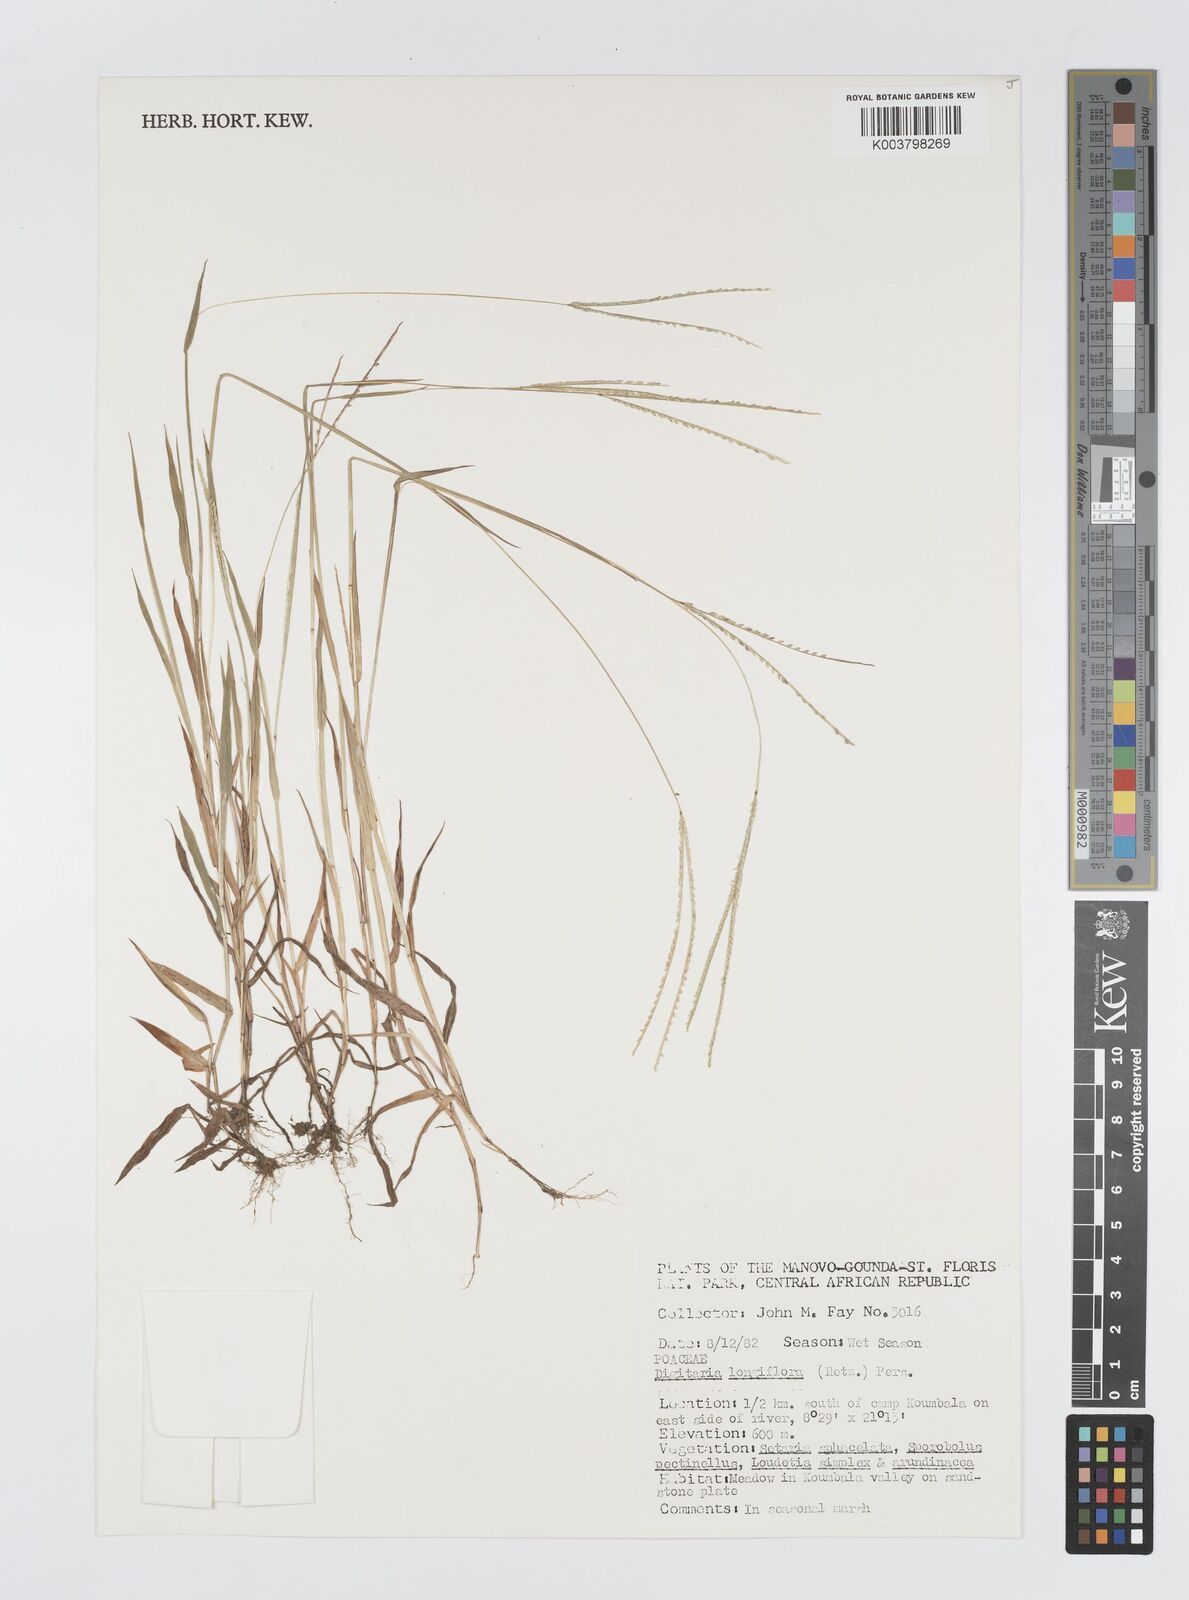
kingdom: Plantae
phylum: Tracheophyta
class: Liliopsida
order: Poales
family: Poaceae
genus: Digitaria
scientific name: Digitaria longiflora
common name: Wire crabgrass
